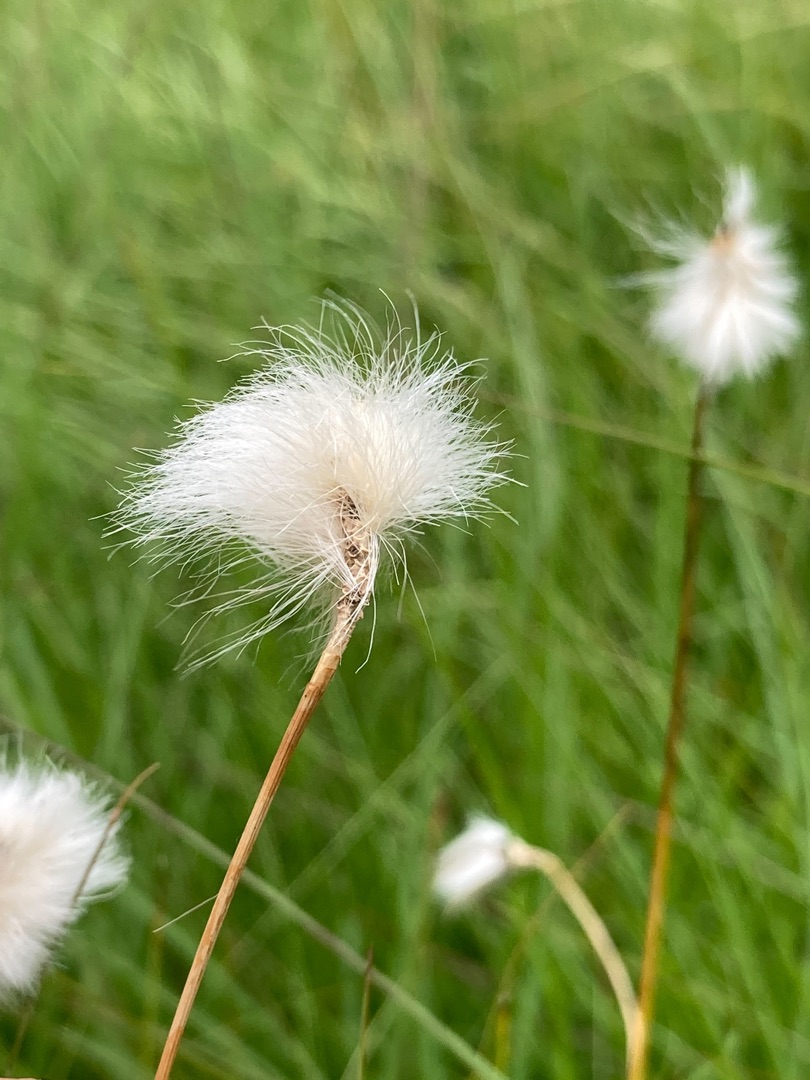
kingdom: Plantae
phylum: Tracheophyta
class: Liliopsida
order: Poales
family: Cyperaceae
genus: Eriophorum
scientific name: Eriophorum vaginatum
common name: Tue-kæruld
